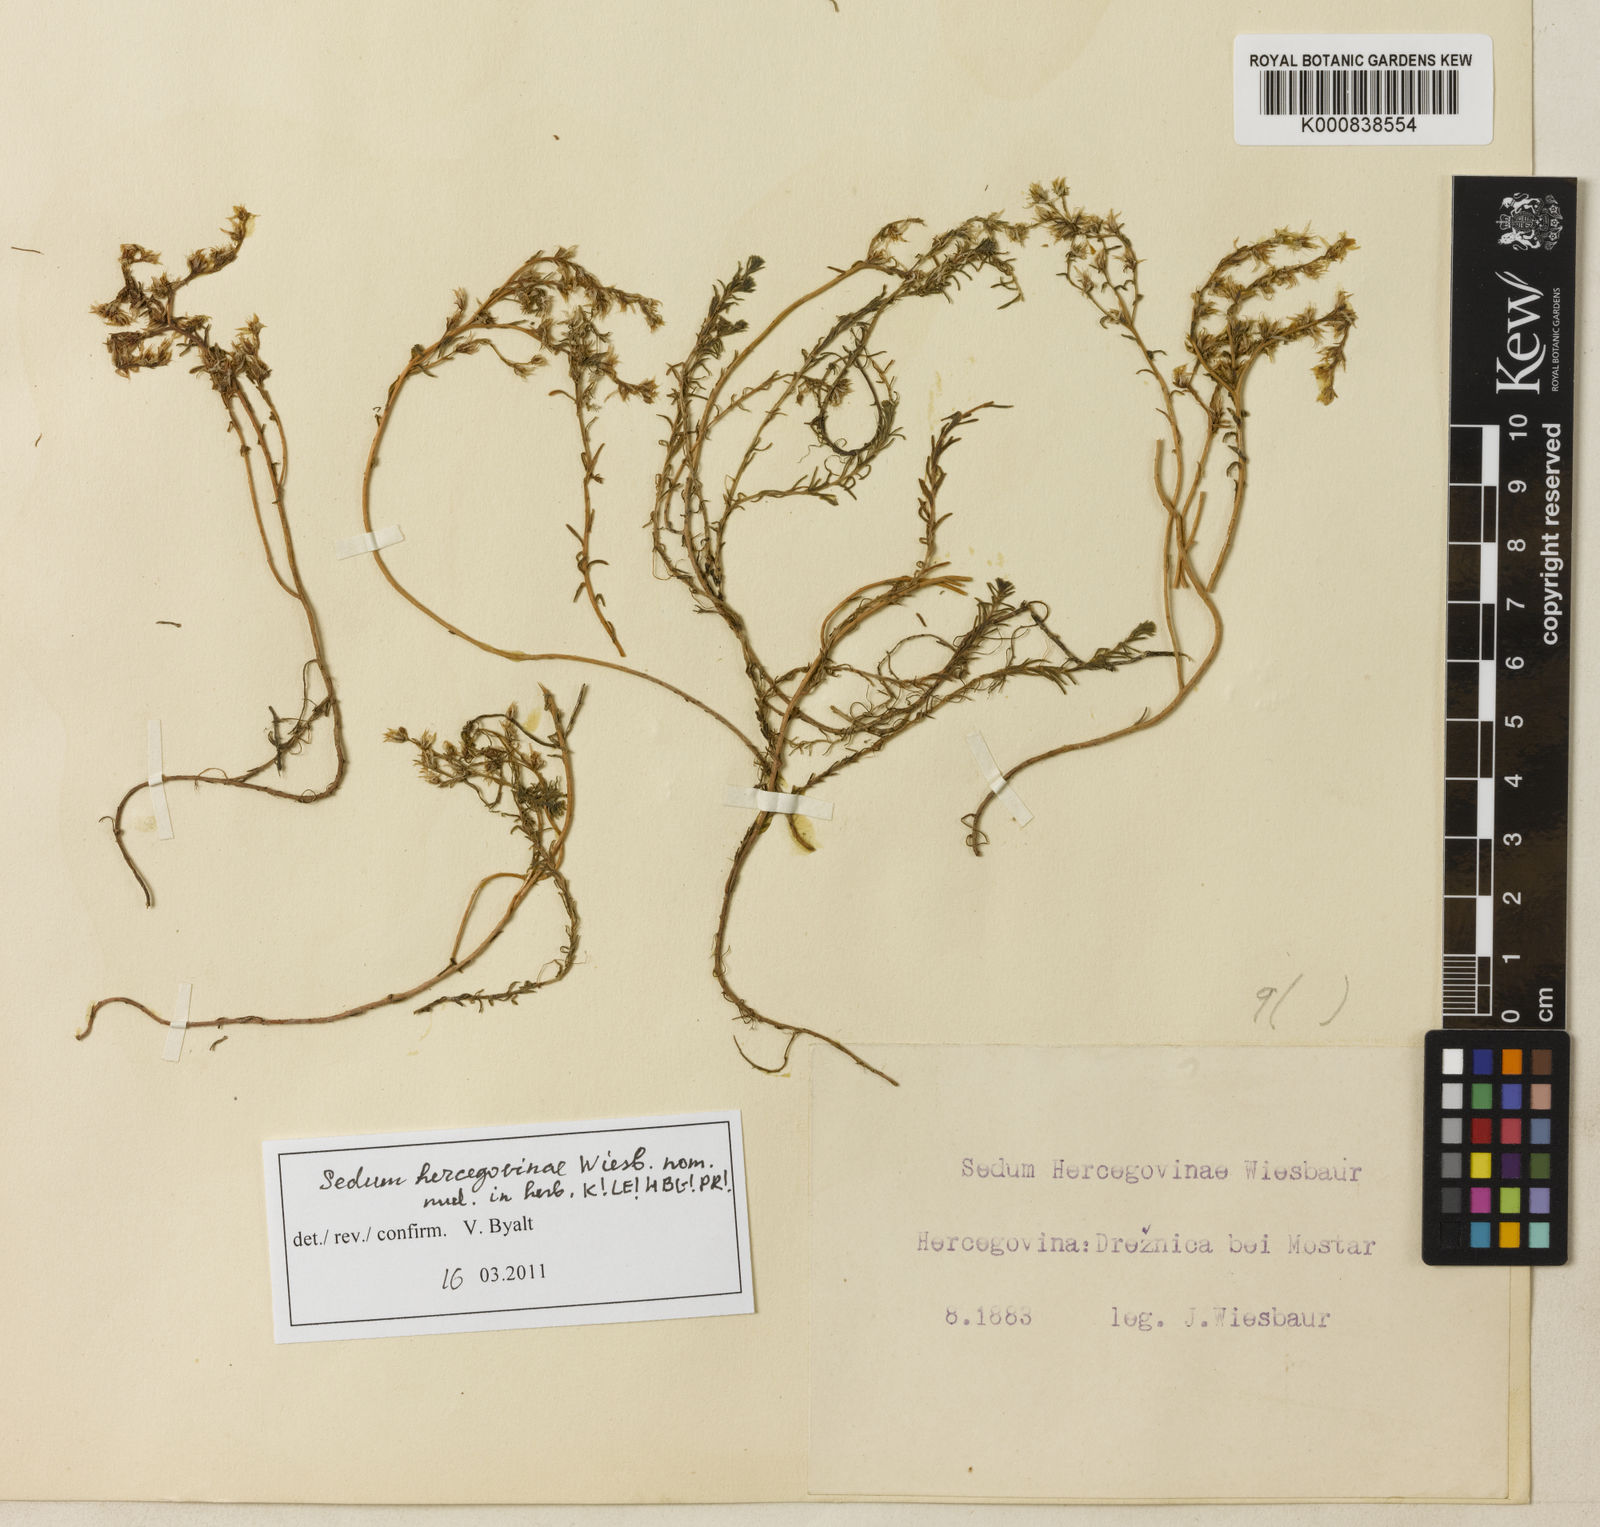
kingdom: Plantae
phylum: Tracheophyta
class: Magnoliopsida
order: Saxifragales
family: Crassulaceae
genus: Sedum
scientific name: Sedum
